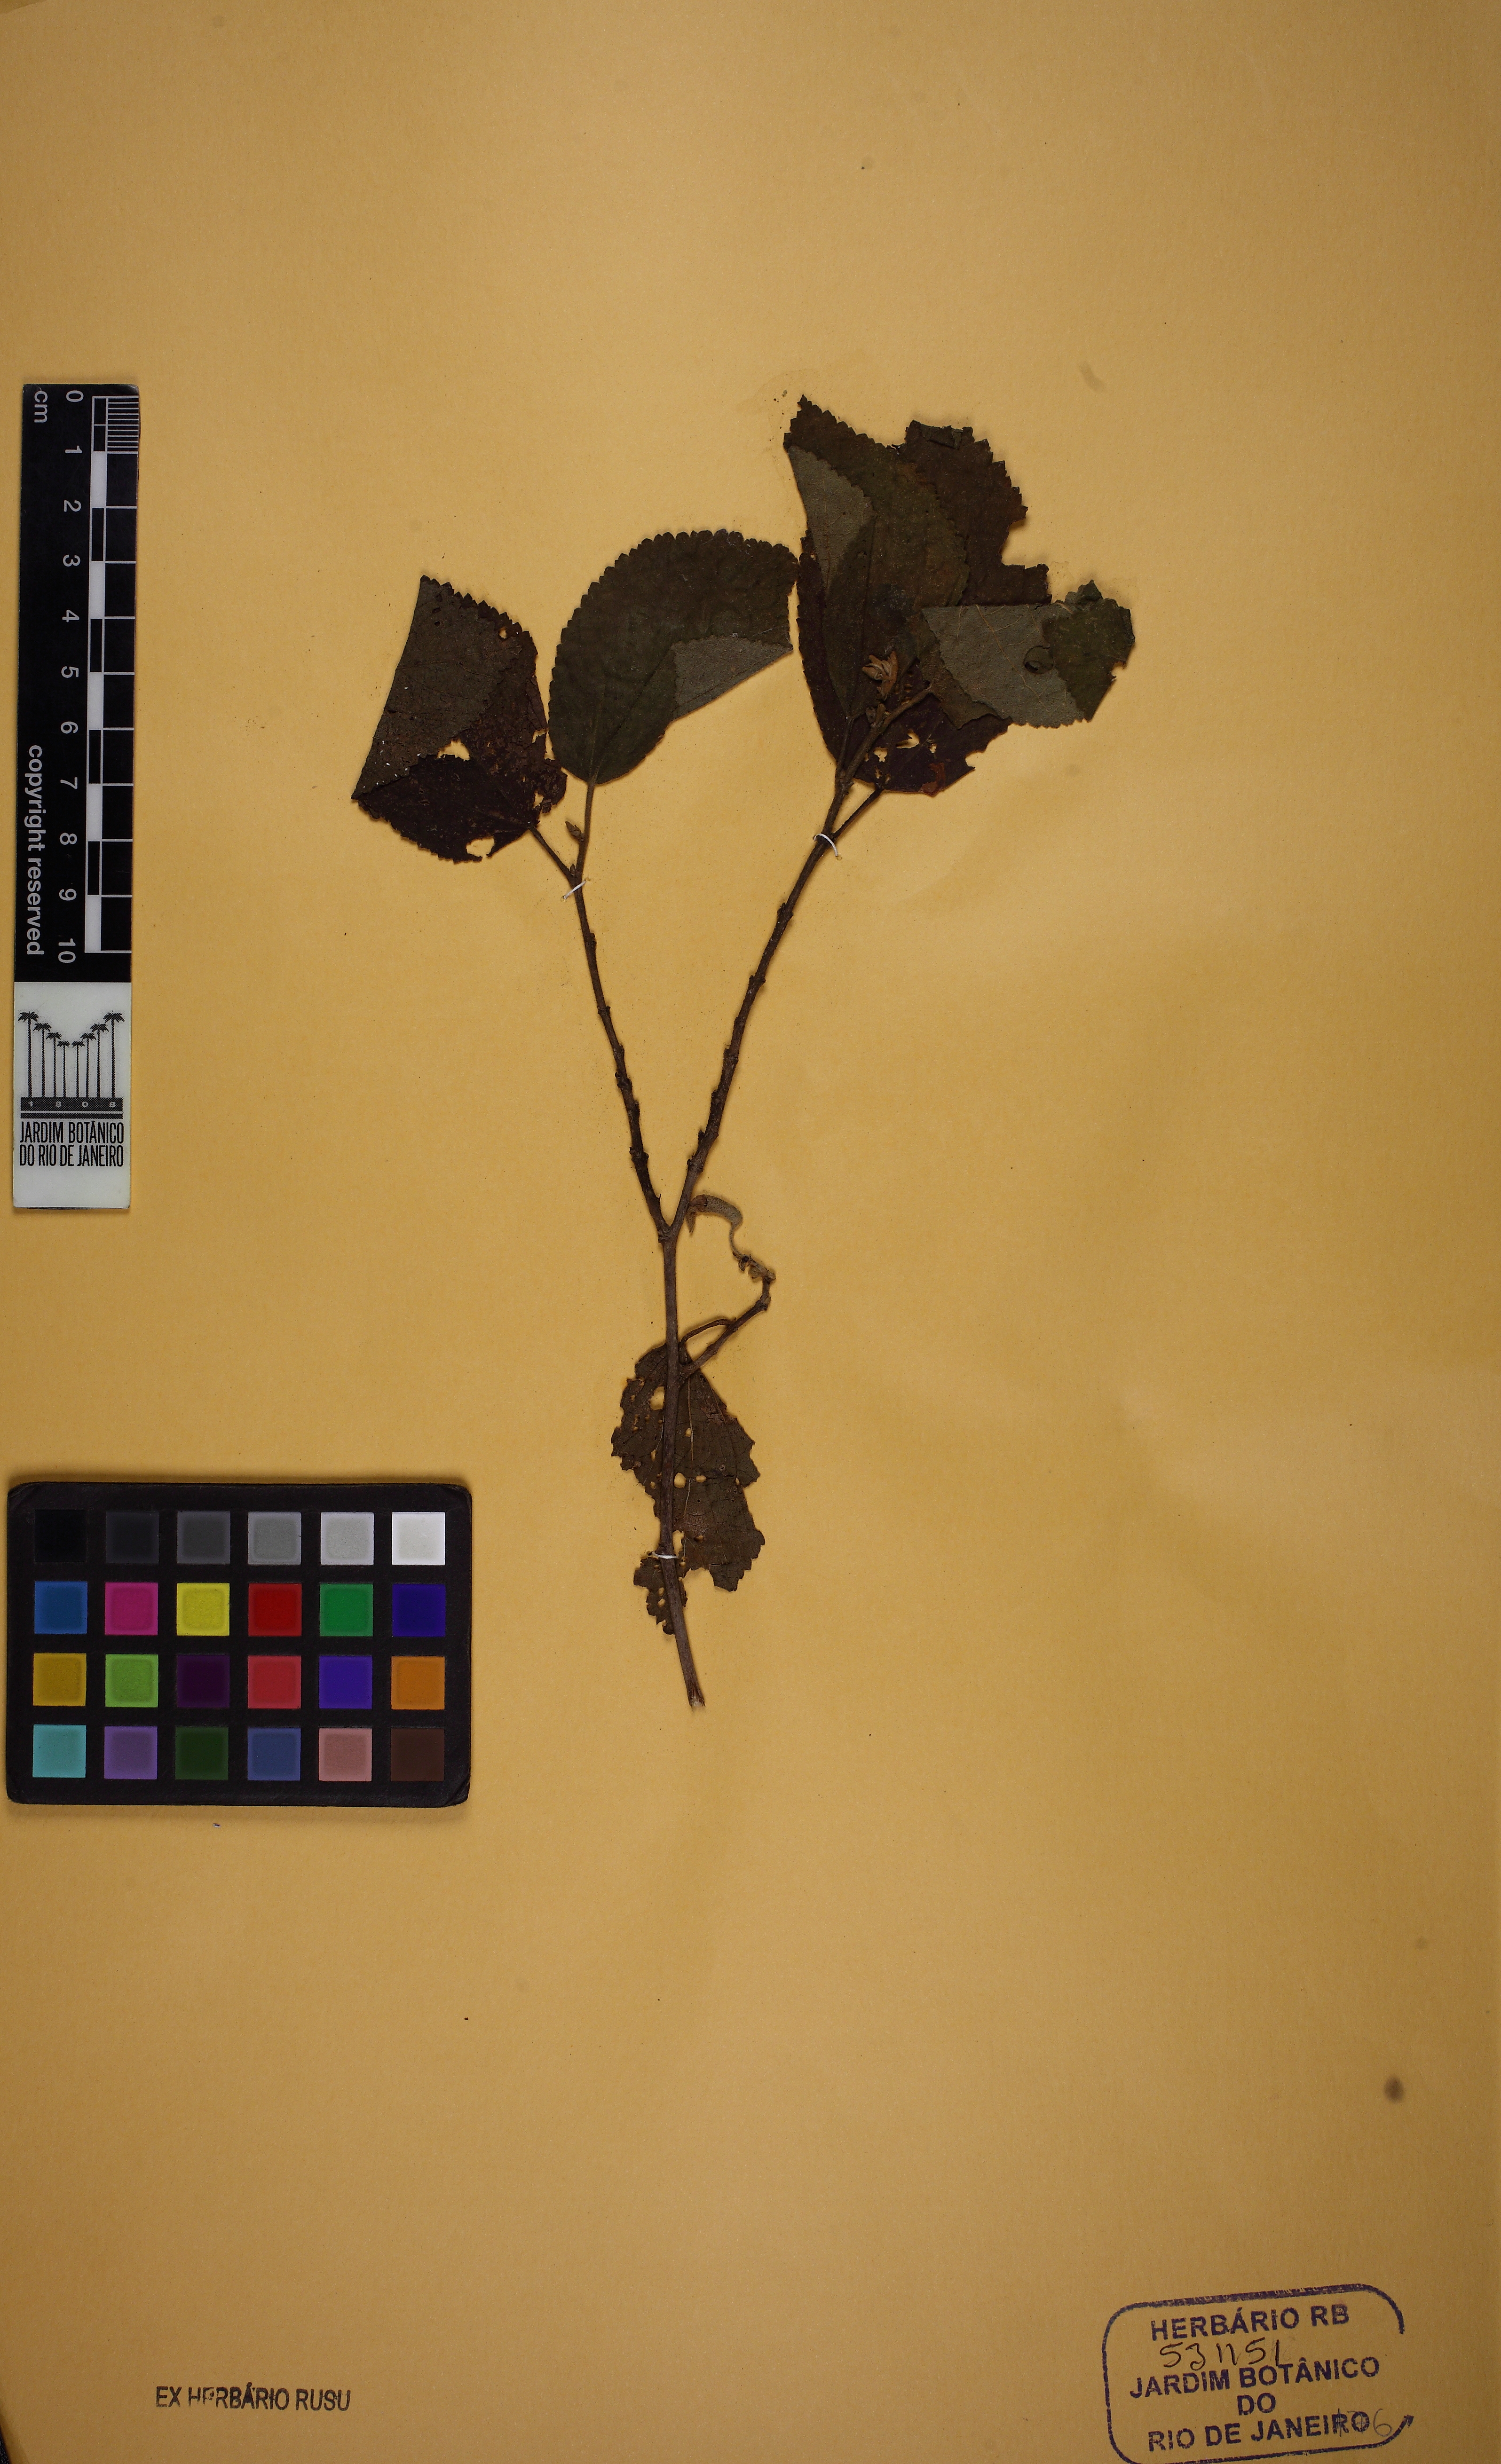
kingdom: Plantae
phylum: Tracheophyta
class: Magnoliopsida
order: Malvales
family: Malvaceae
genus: Helicteres
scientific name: Helicteres sacarolha
